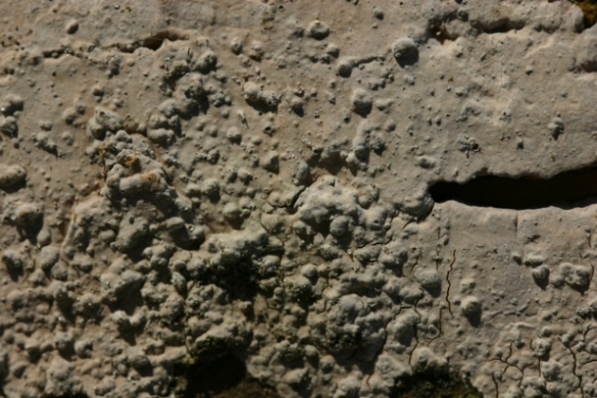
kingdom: Fungi
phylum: Basidiomycota
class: Agaricomycetes
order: Russulales
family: Peniophoraceae
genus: Peniophora
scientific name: Peniophora cinerea
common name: grå voksskind
